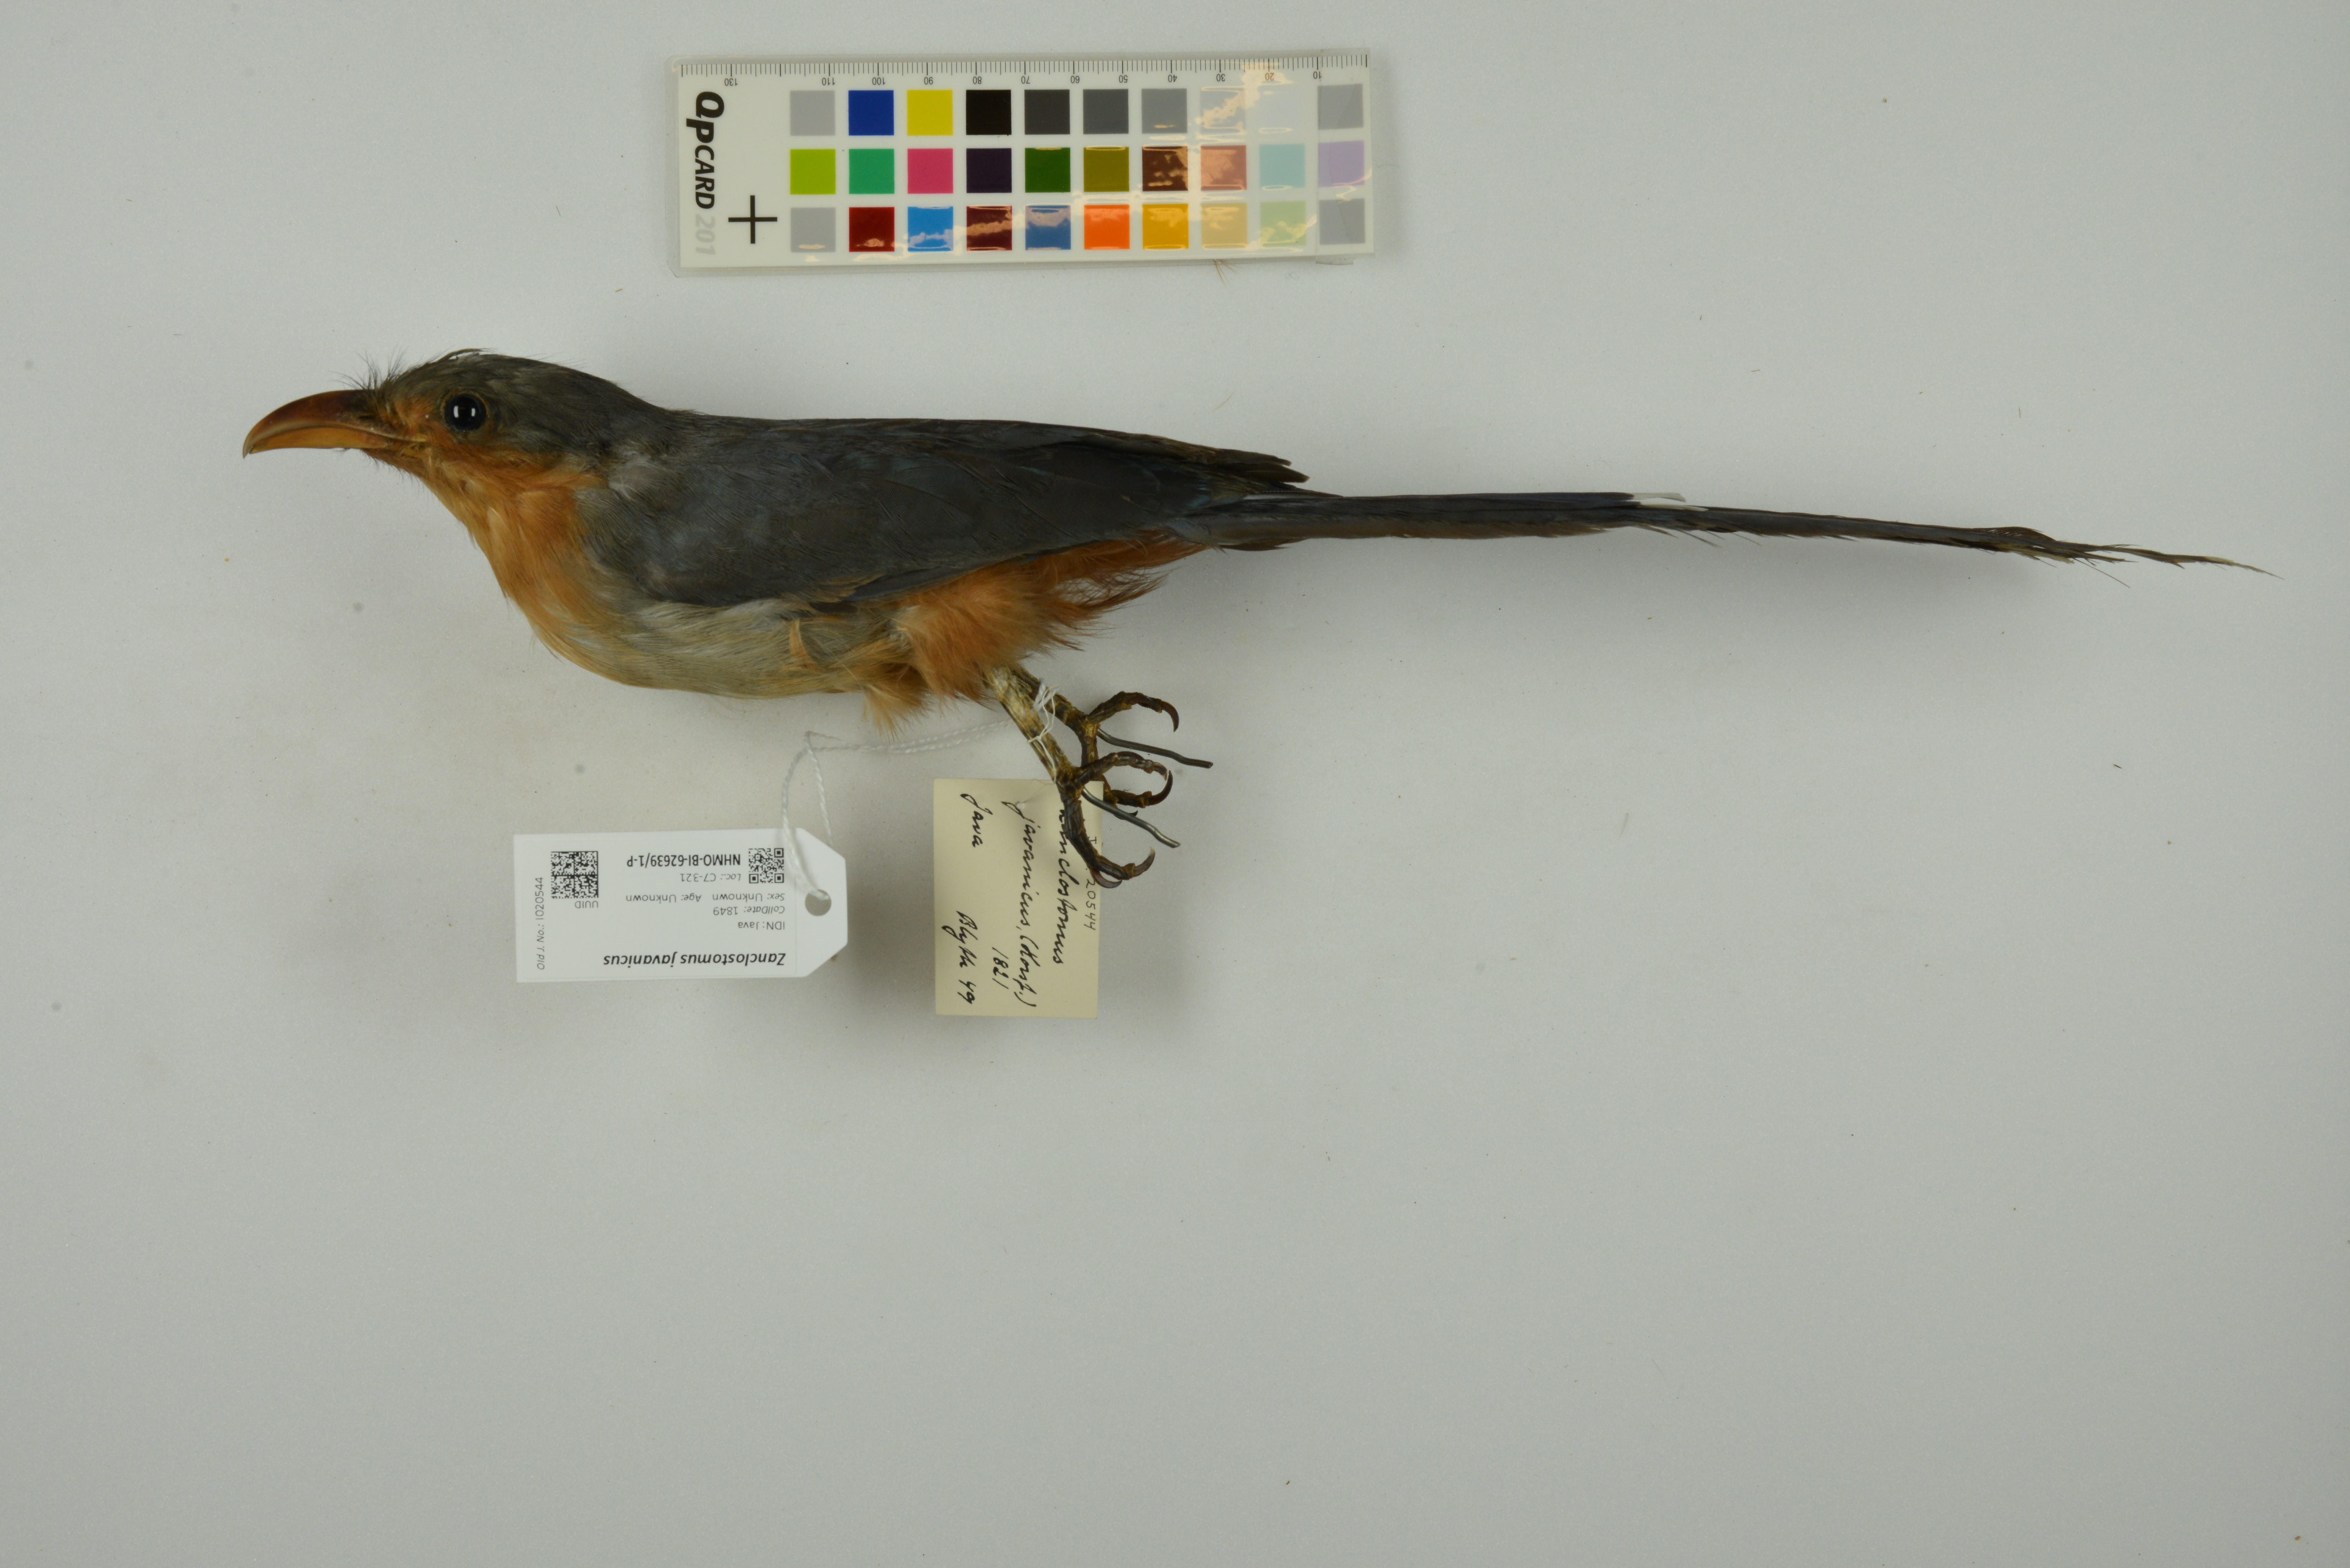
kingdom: Animalia
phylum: Chordata
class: Aves
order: Cuculiformes
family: Cuculidae
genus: Zanclostomus
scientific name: Zanclostomus javanicus
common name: Red-billed malkoha
